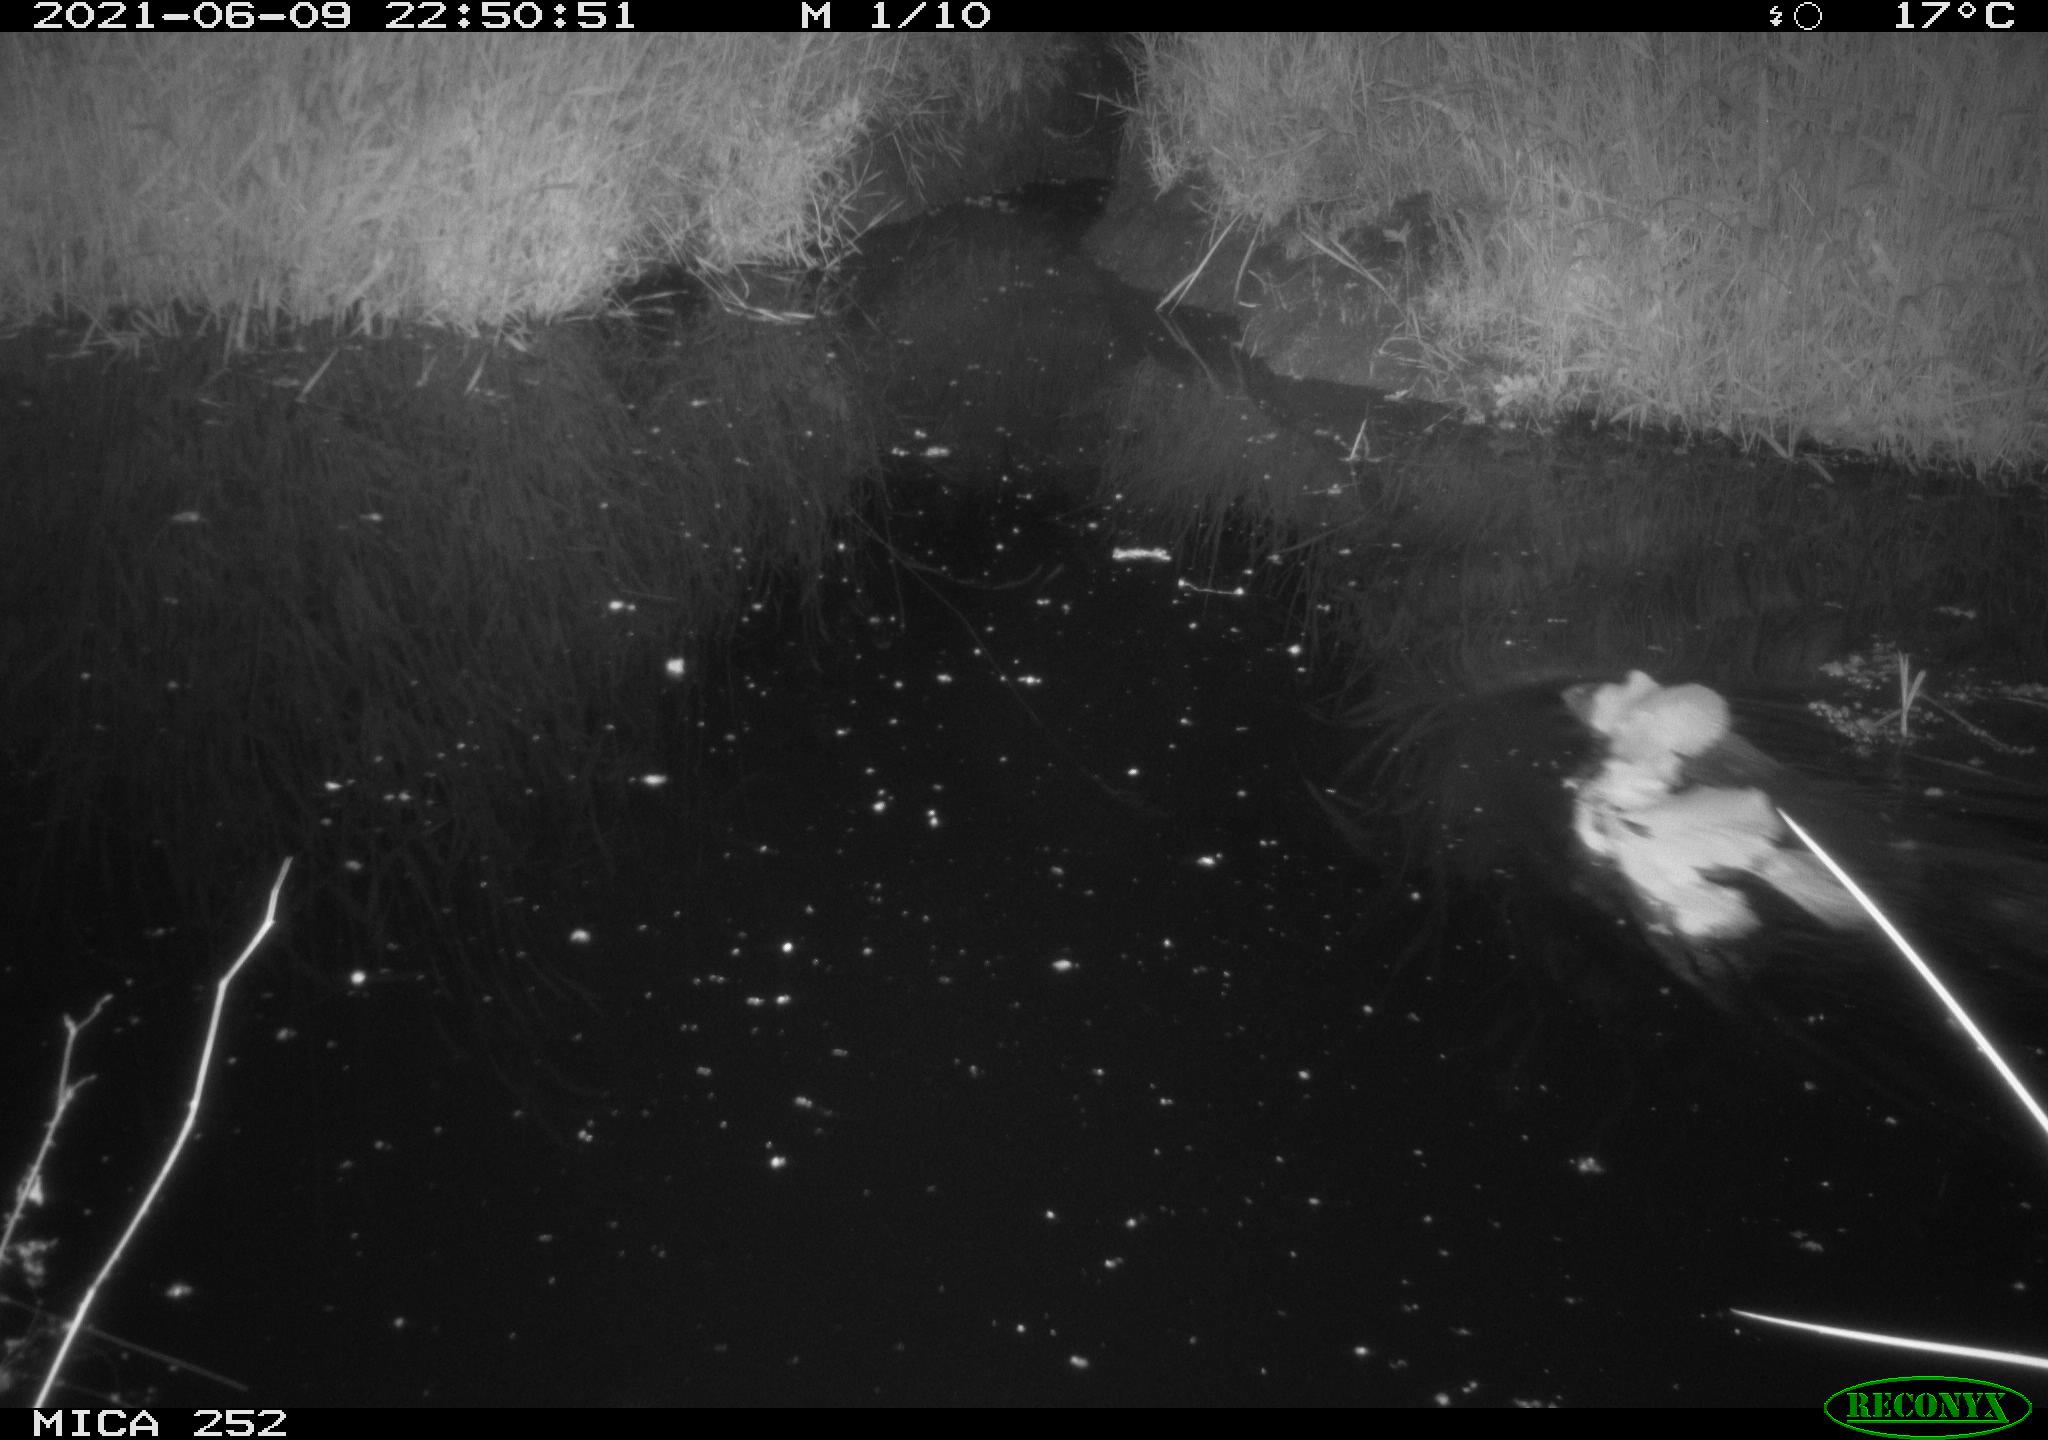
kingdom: Animalia
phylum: Chordata
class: Mammalia
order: Rodentia
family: Castoridae
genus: Castor
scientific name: Castor fiber
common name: Eurasian beaver
